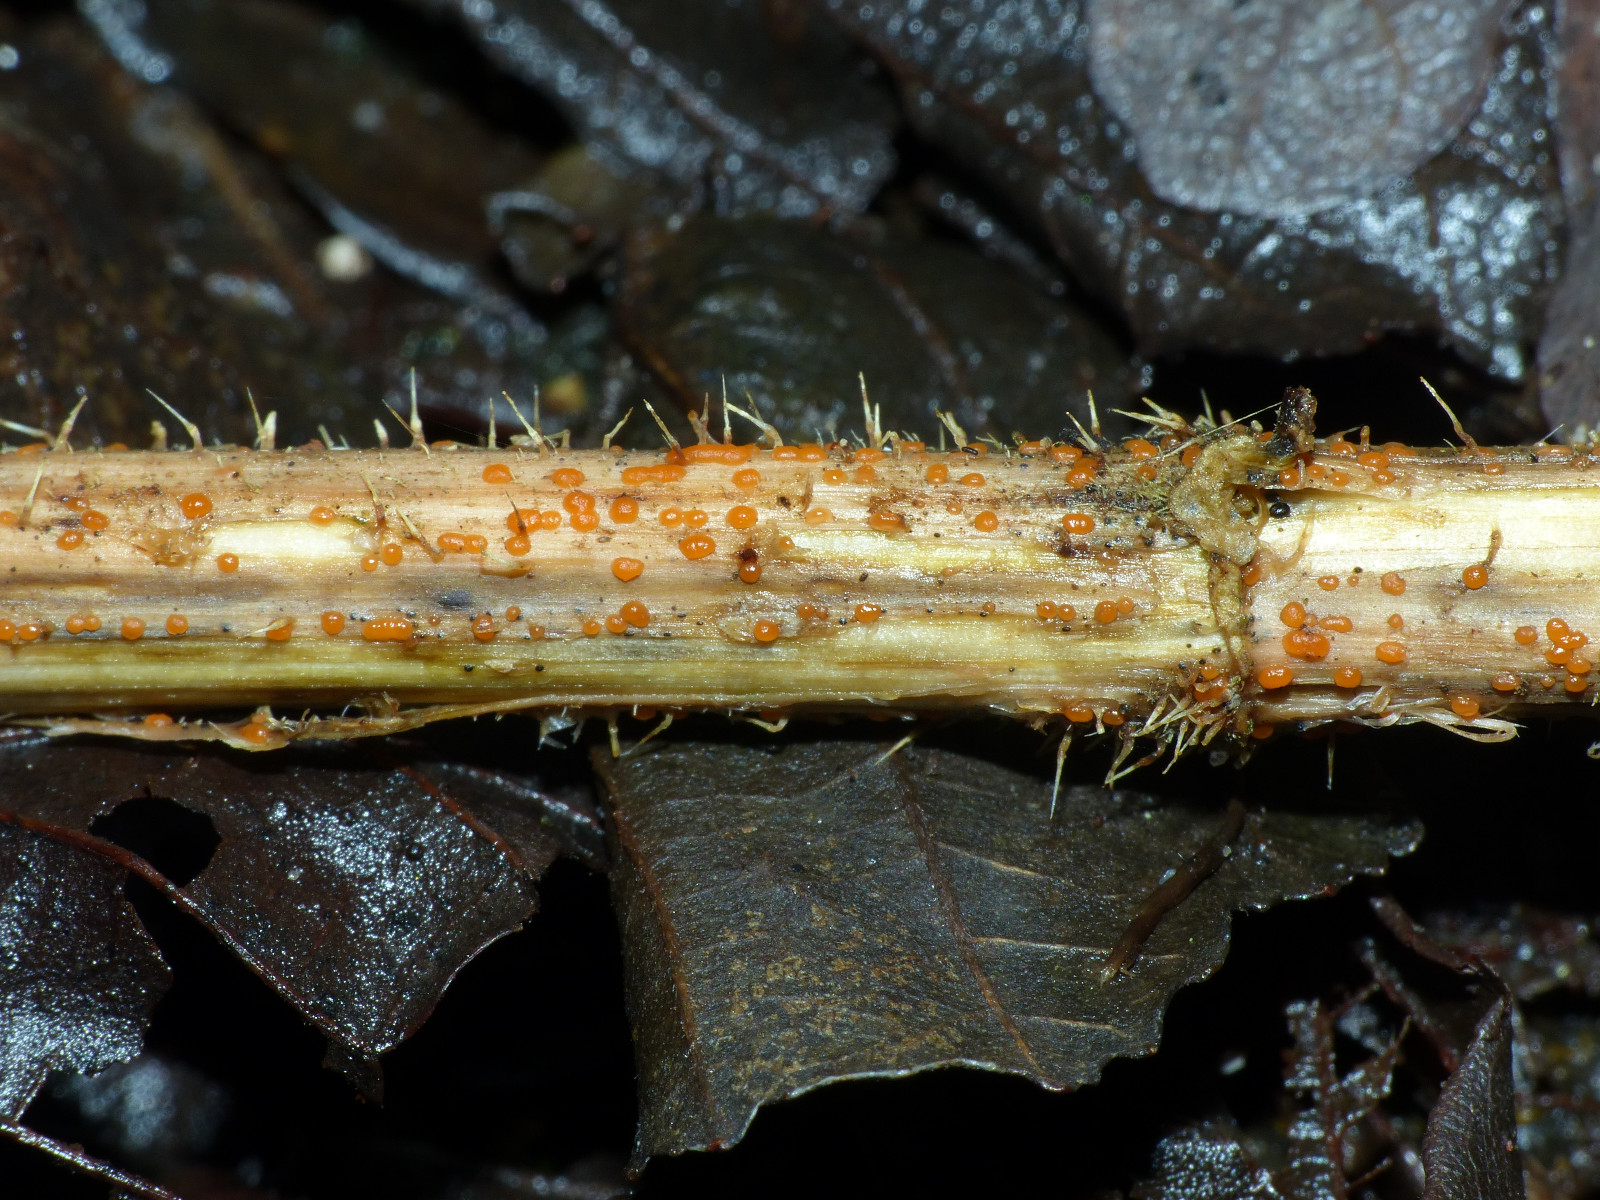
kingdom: Fungi
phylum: Ascomycota
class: Leotiomycetes
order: Helotiales
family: Calloriaceae
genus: Calloria
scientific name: Calloria urticae
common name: nælde-orangeskive
